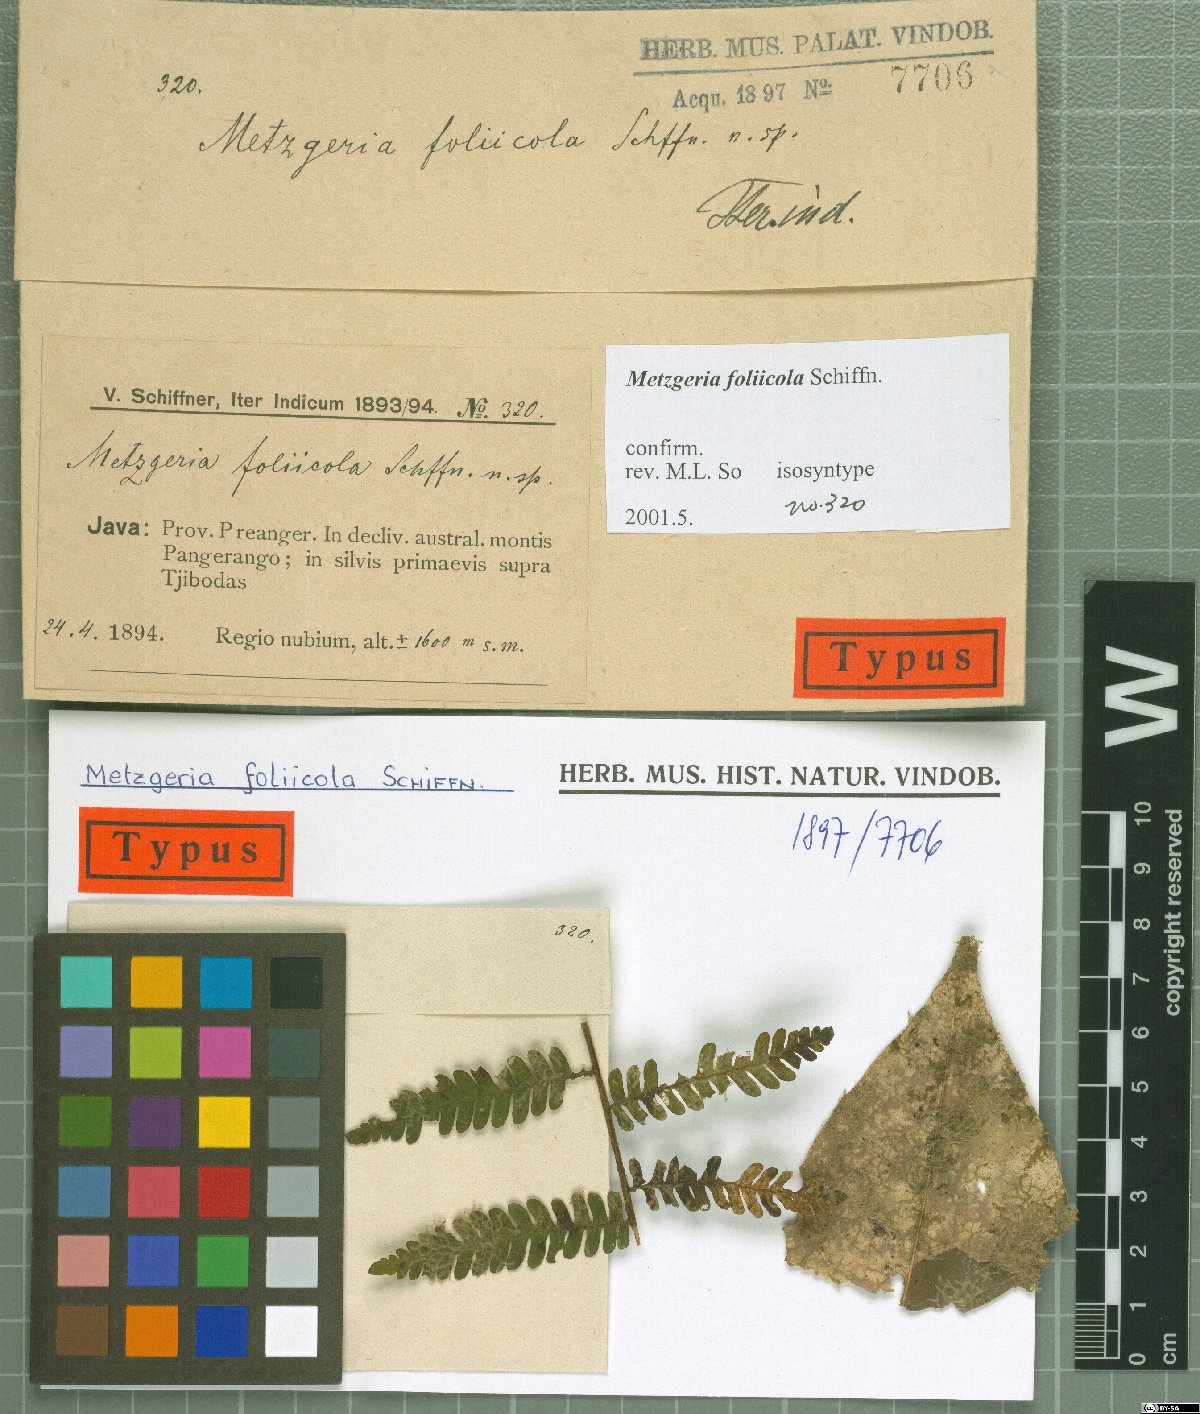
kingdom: Plantae
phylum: Marchantiophyta
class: Jungermanniopsida
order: Metzgeriales
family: Metzgeriaceae
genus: Metzgeria
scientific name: Metzgeria foliicola
